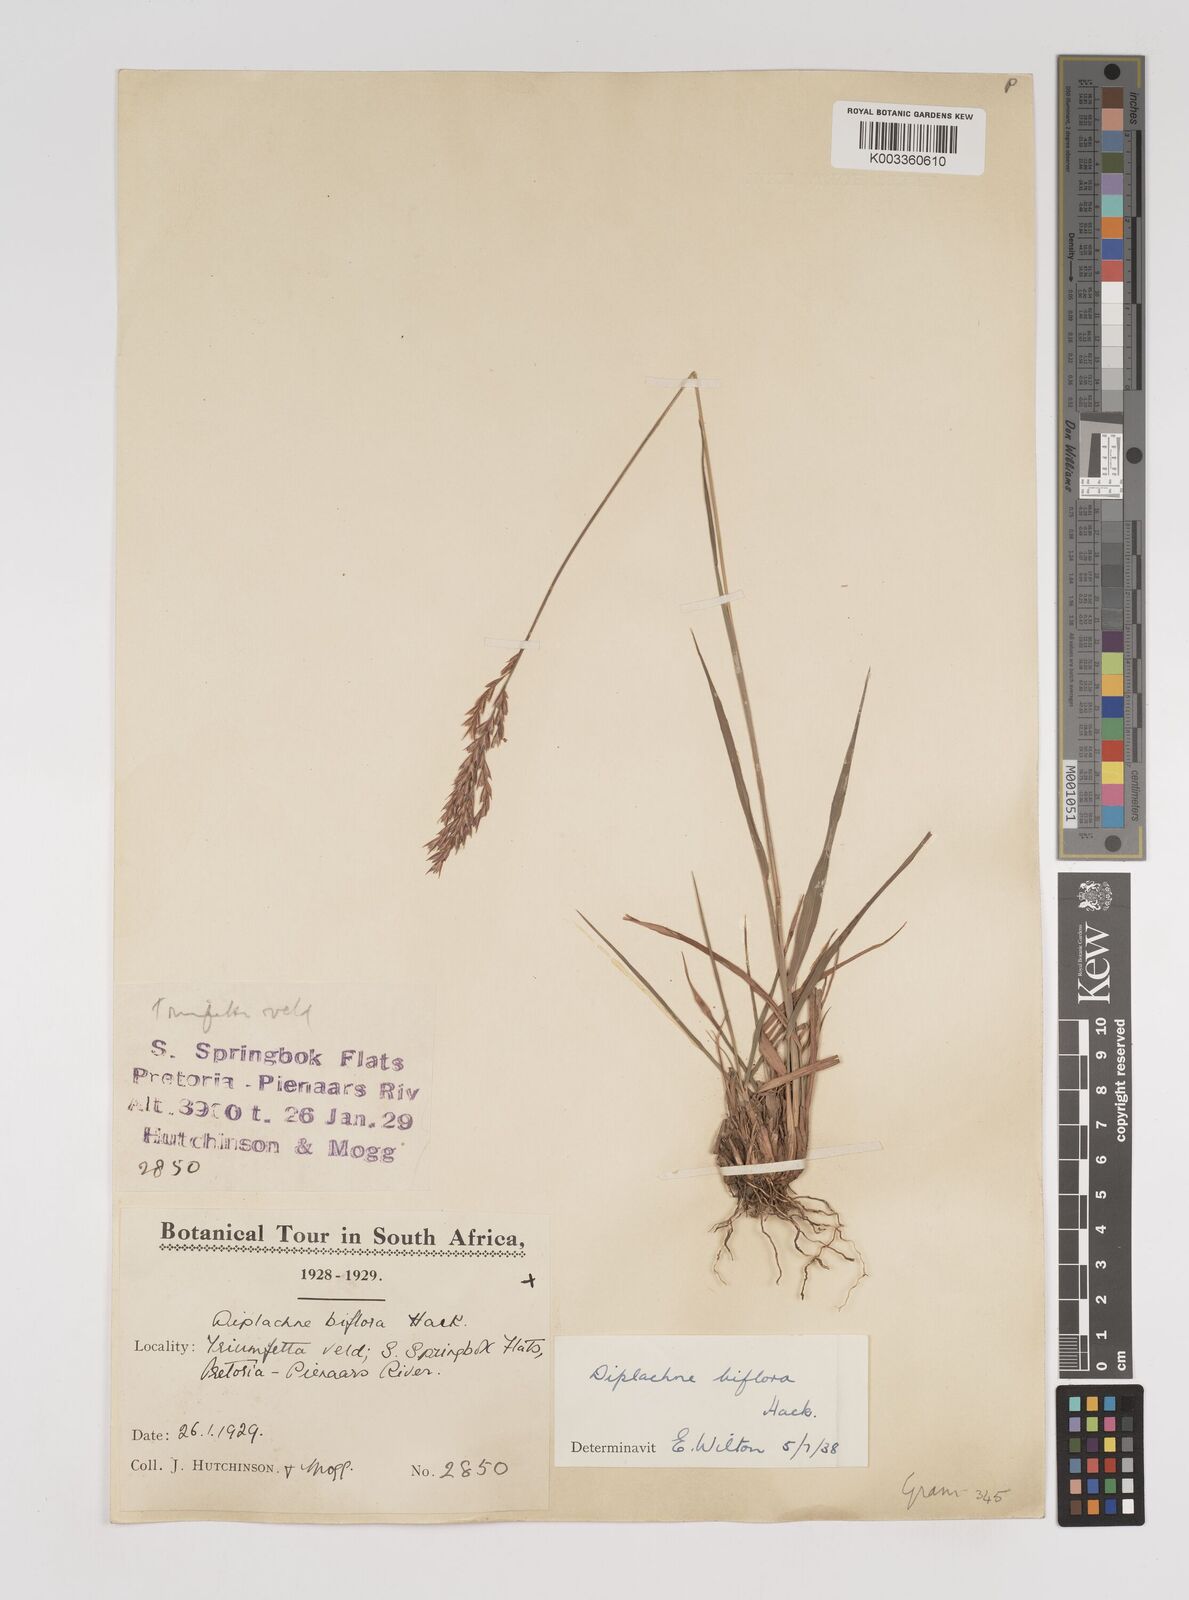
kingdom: Plantae
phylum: Tracheophyta
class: Liliopsida
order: Poales
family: Poaceae
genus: Bewsia
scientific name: Bewsia biflora
